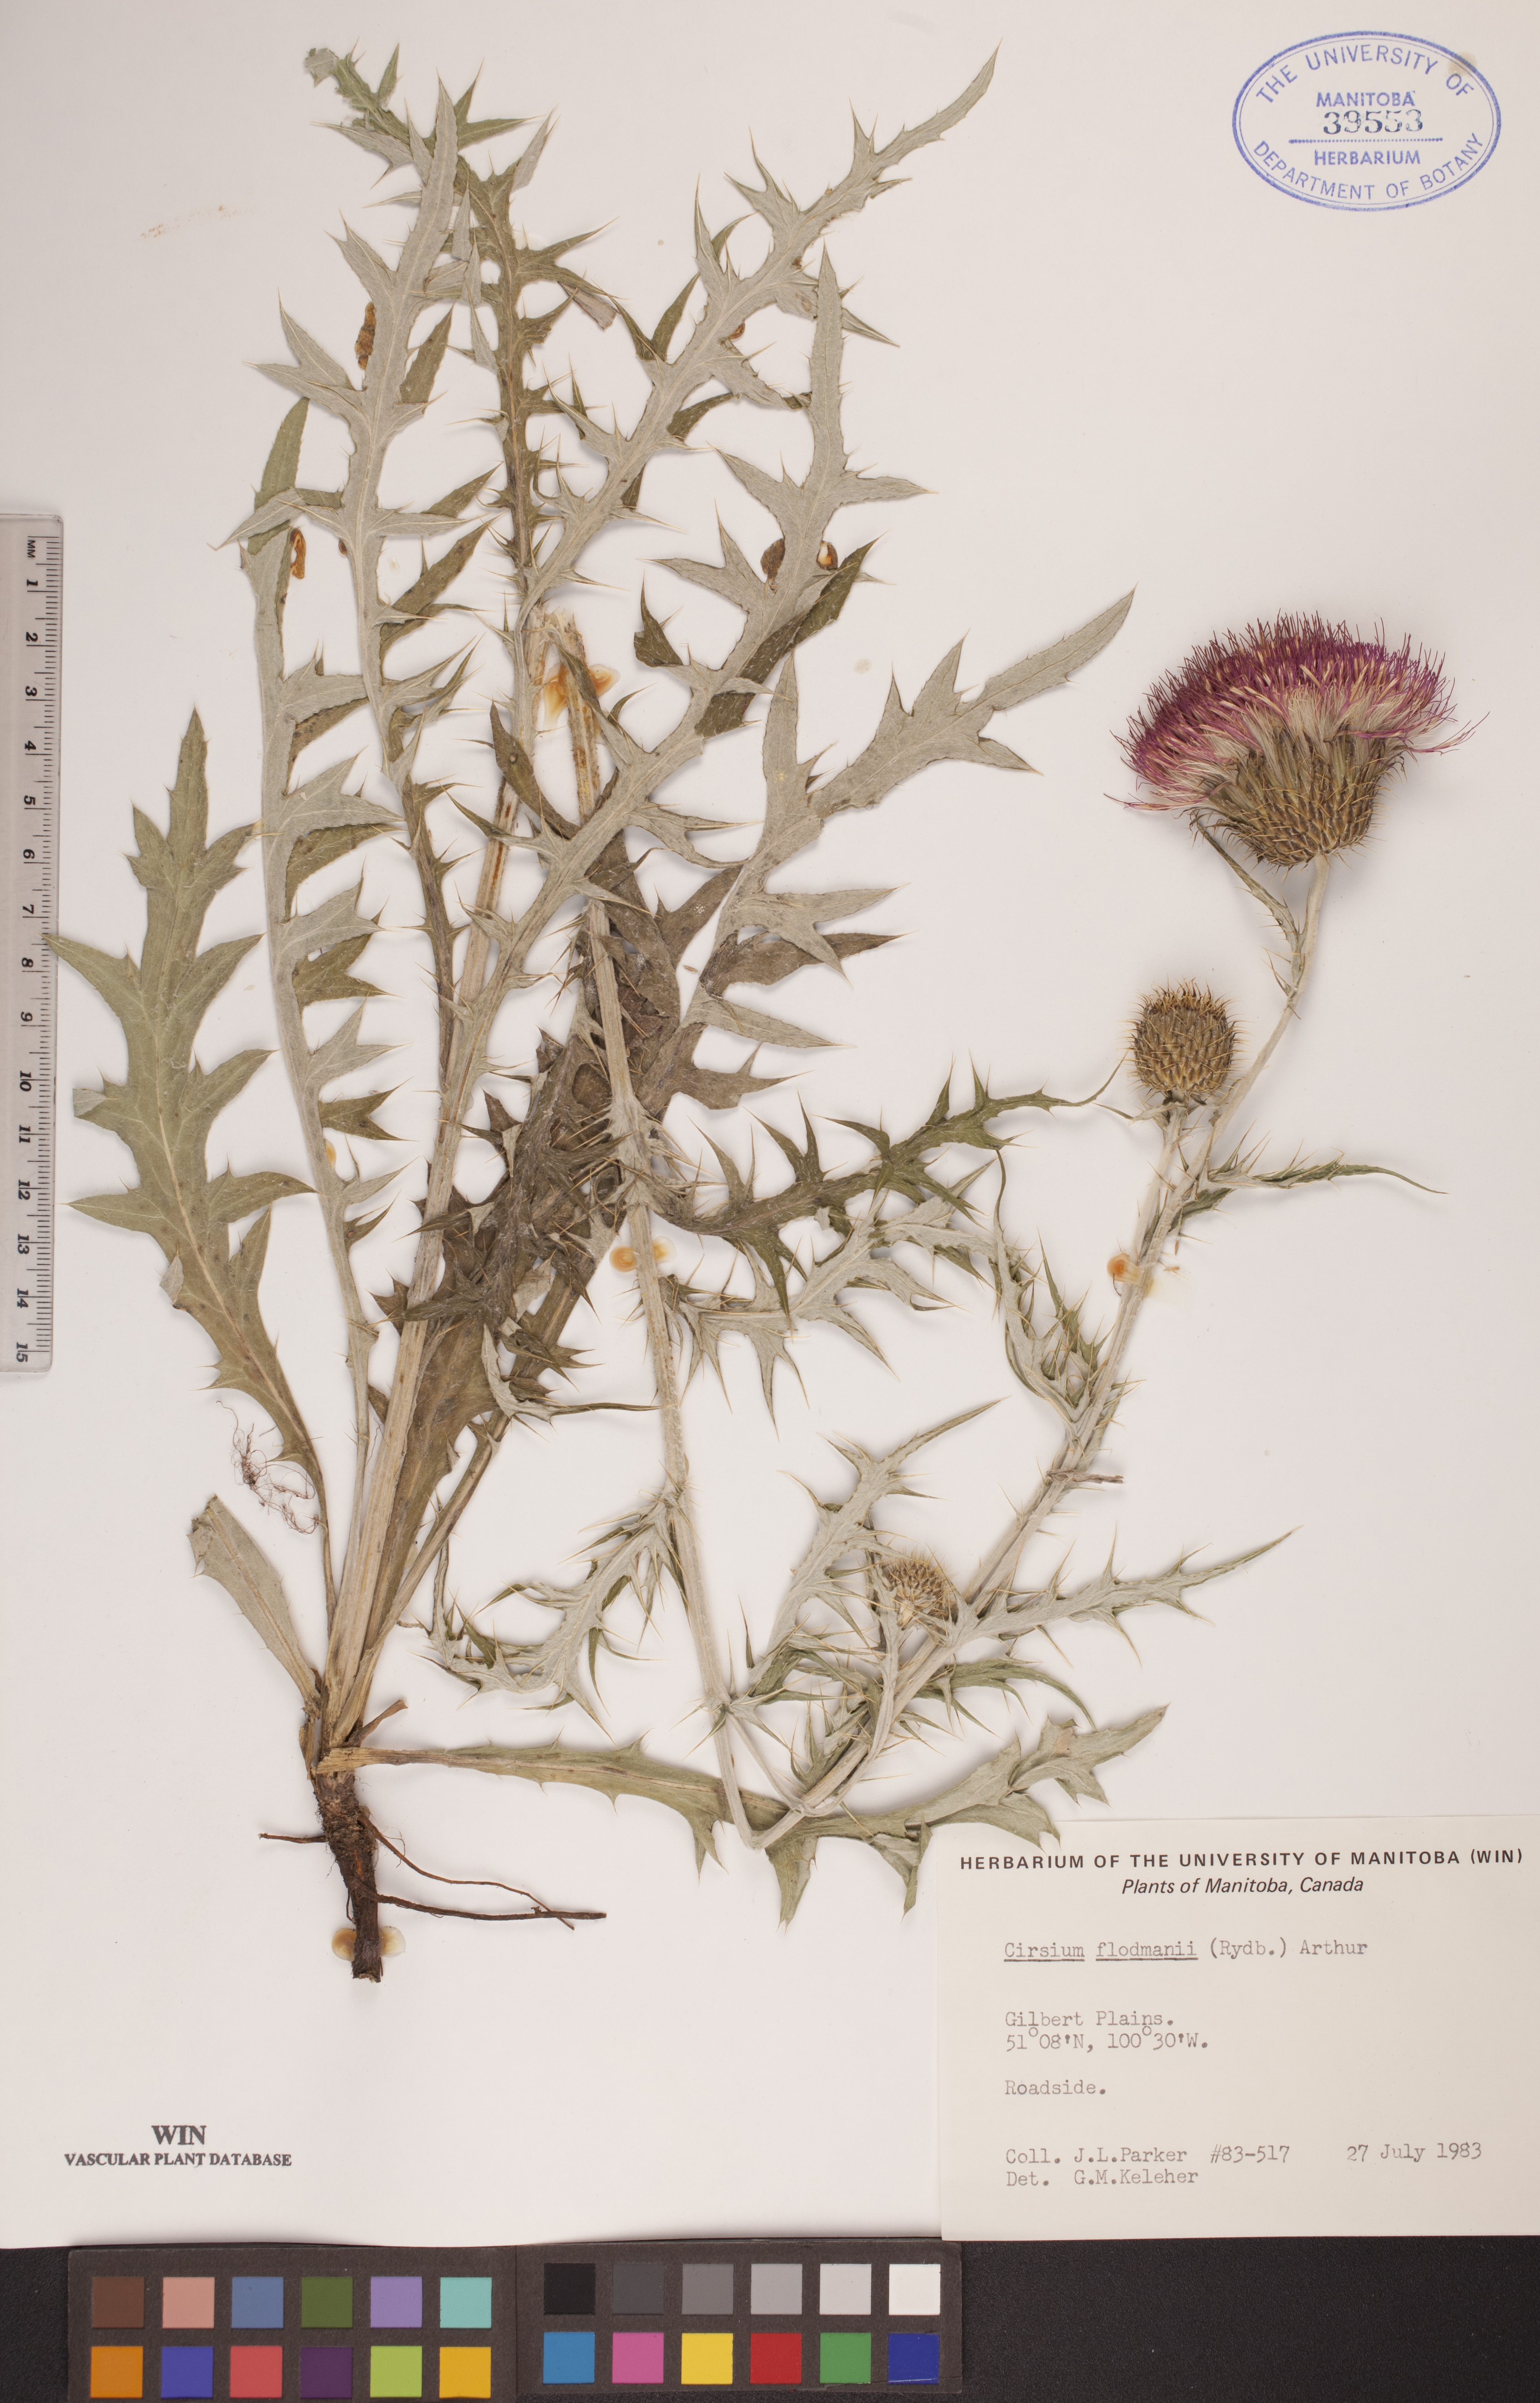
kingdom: Plantae
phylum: Tracheophyta
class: Magnoliopsida
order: Asterales
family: Asteraceae
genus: Cirsium
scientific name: Cirsium flodmanii
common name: Flodman's thistle
